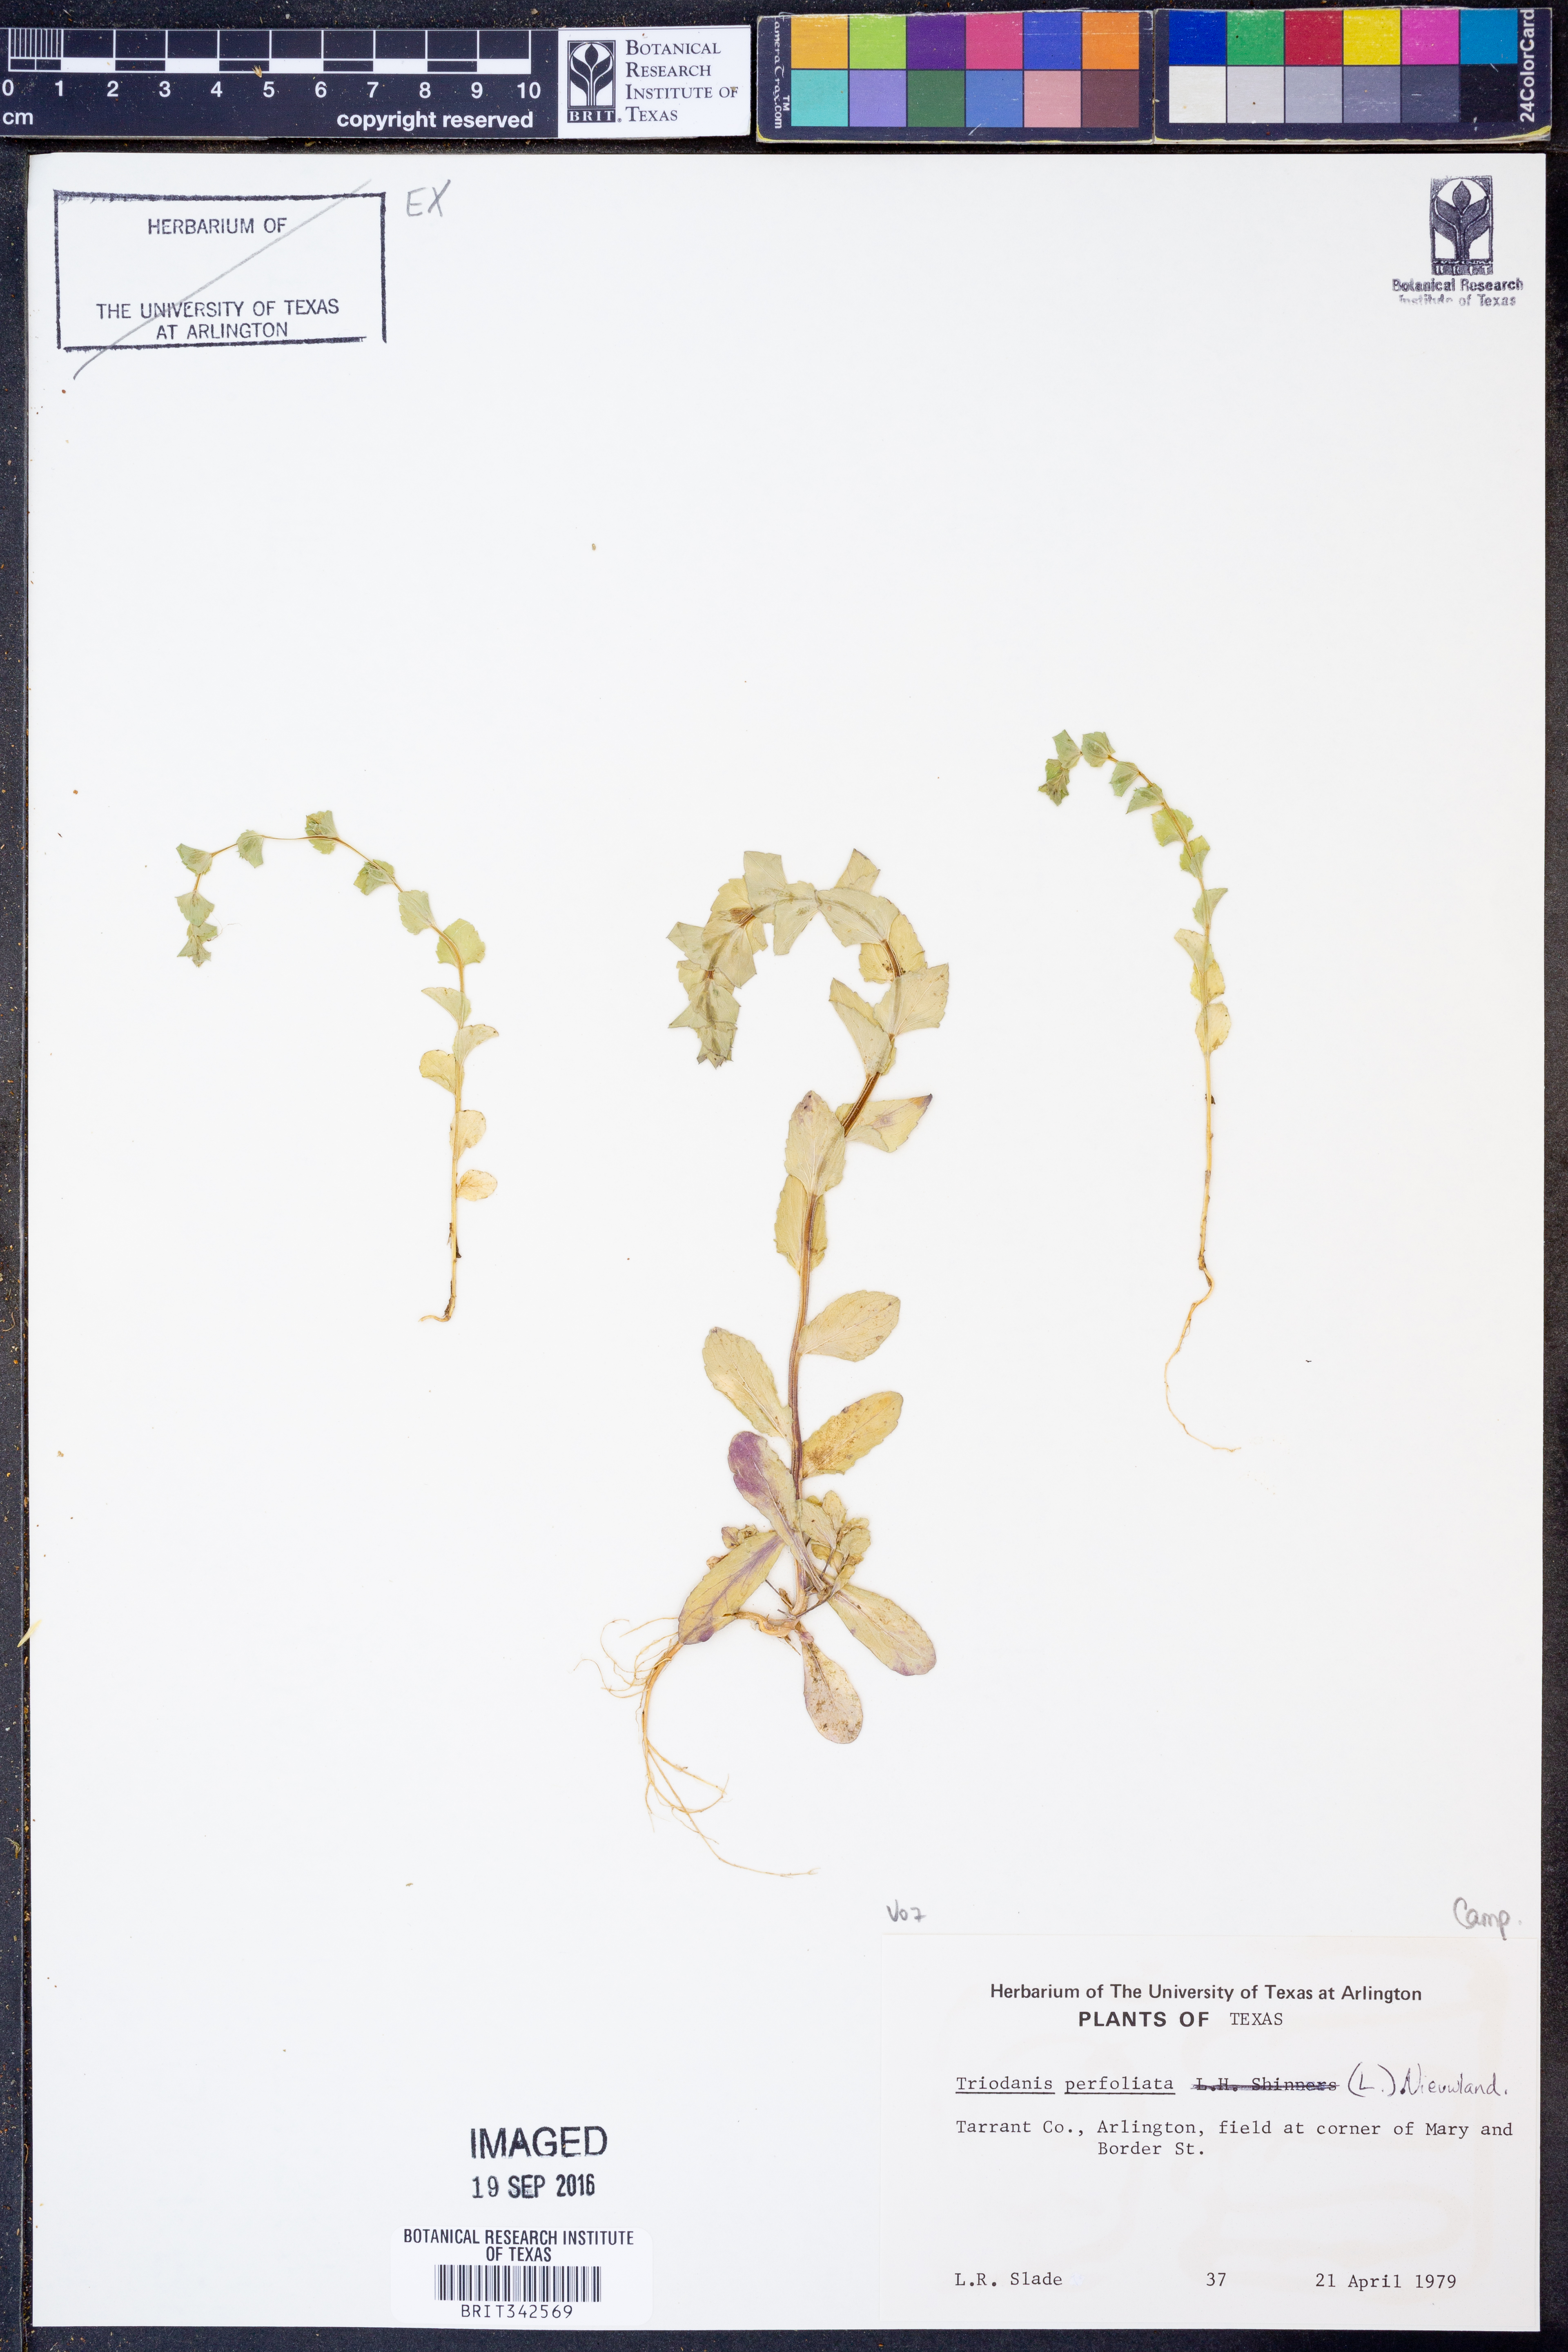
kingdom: Plantae
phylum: Tracheophyta
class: Magnoliopsida
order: Asterales
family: Campanulaceae
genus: Triodanis
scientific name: Triodanis perfoliata
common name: Clasping venus' looking-glass
